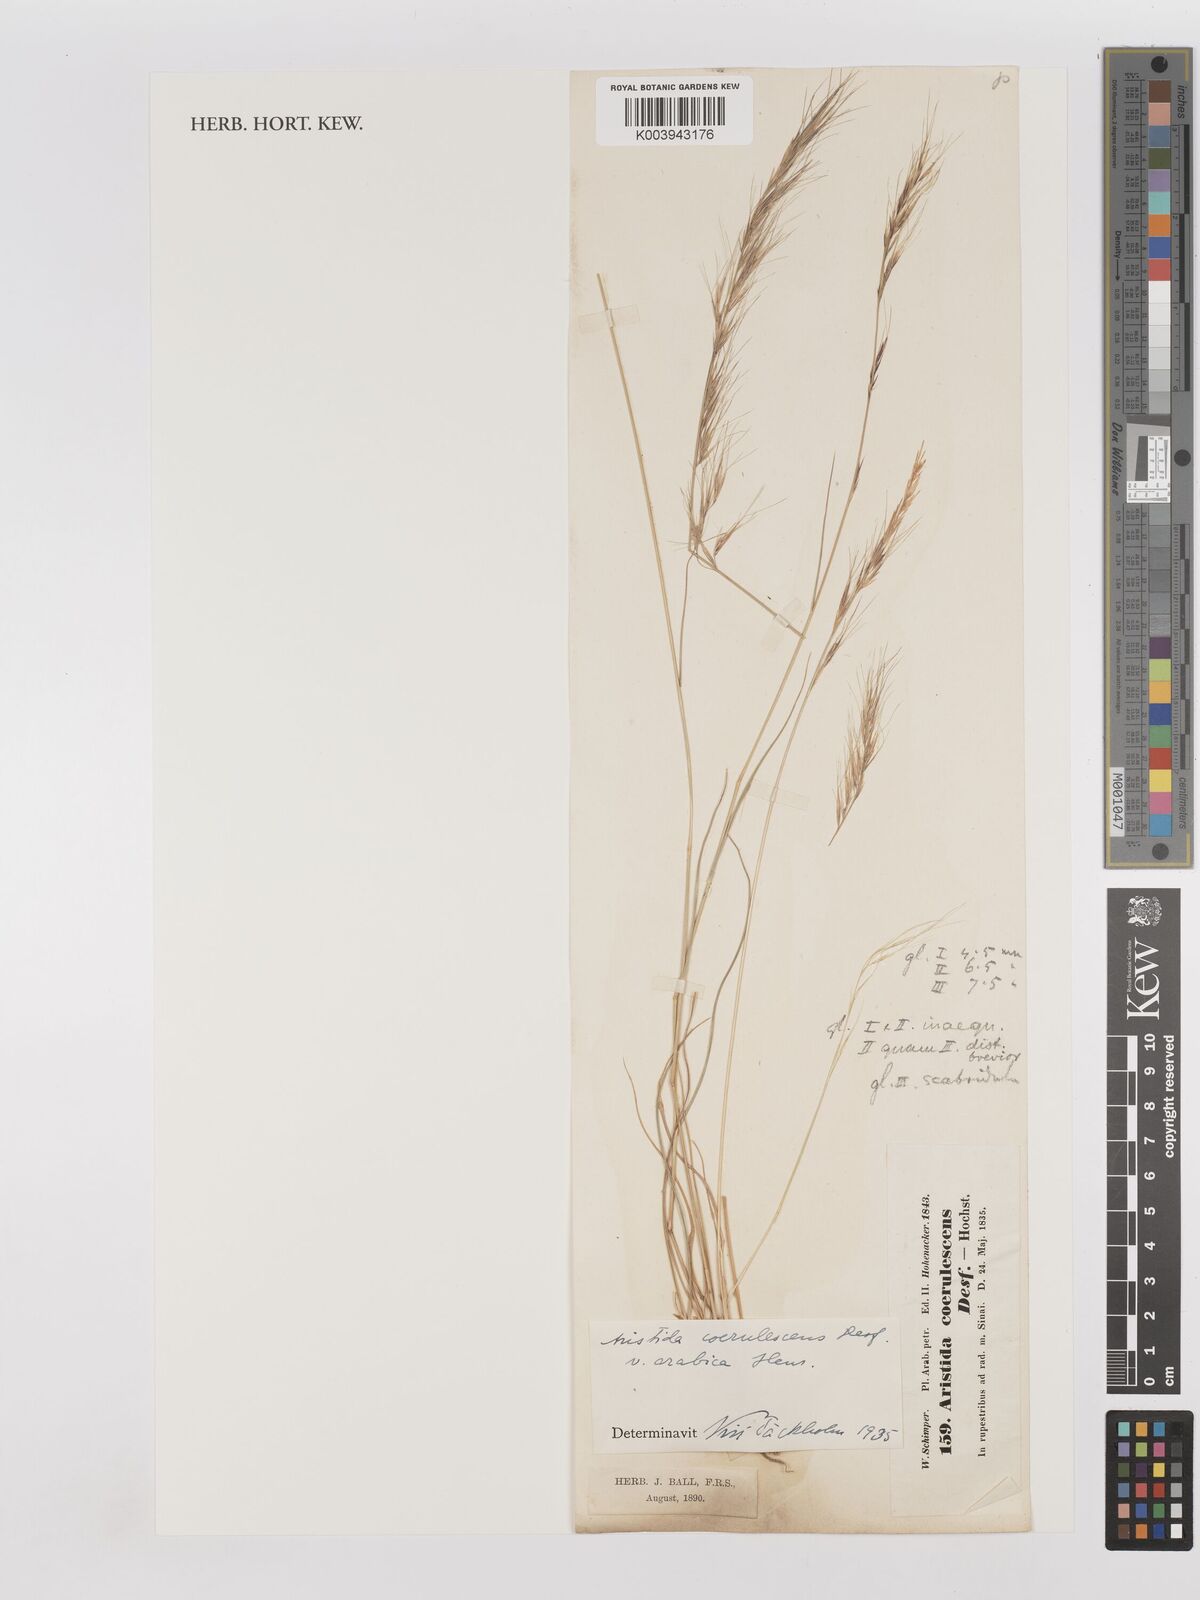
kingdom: Plantae
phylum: Tracheophyta
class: Liliopsida
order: Poales
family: Poaceae
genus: Aristida
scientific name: Aristida adscensionis
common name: Sixweeks threeawn
